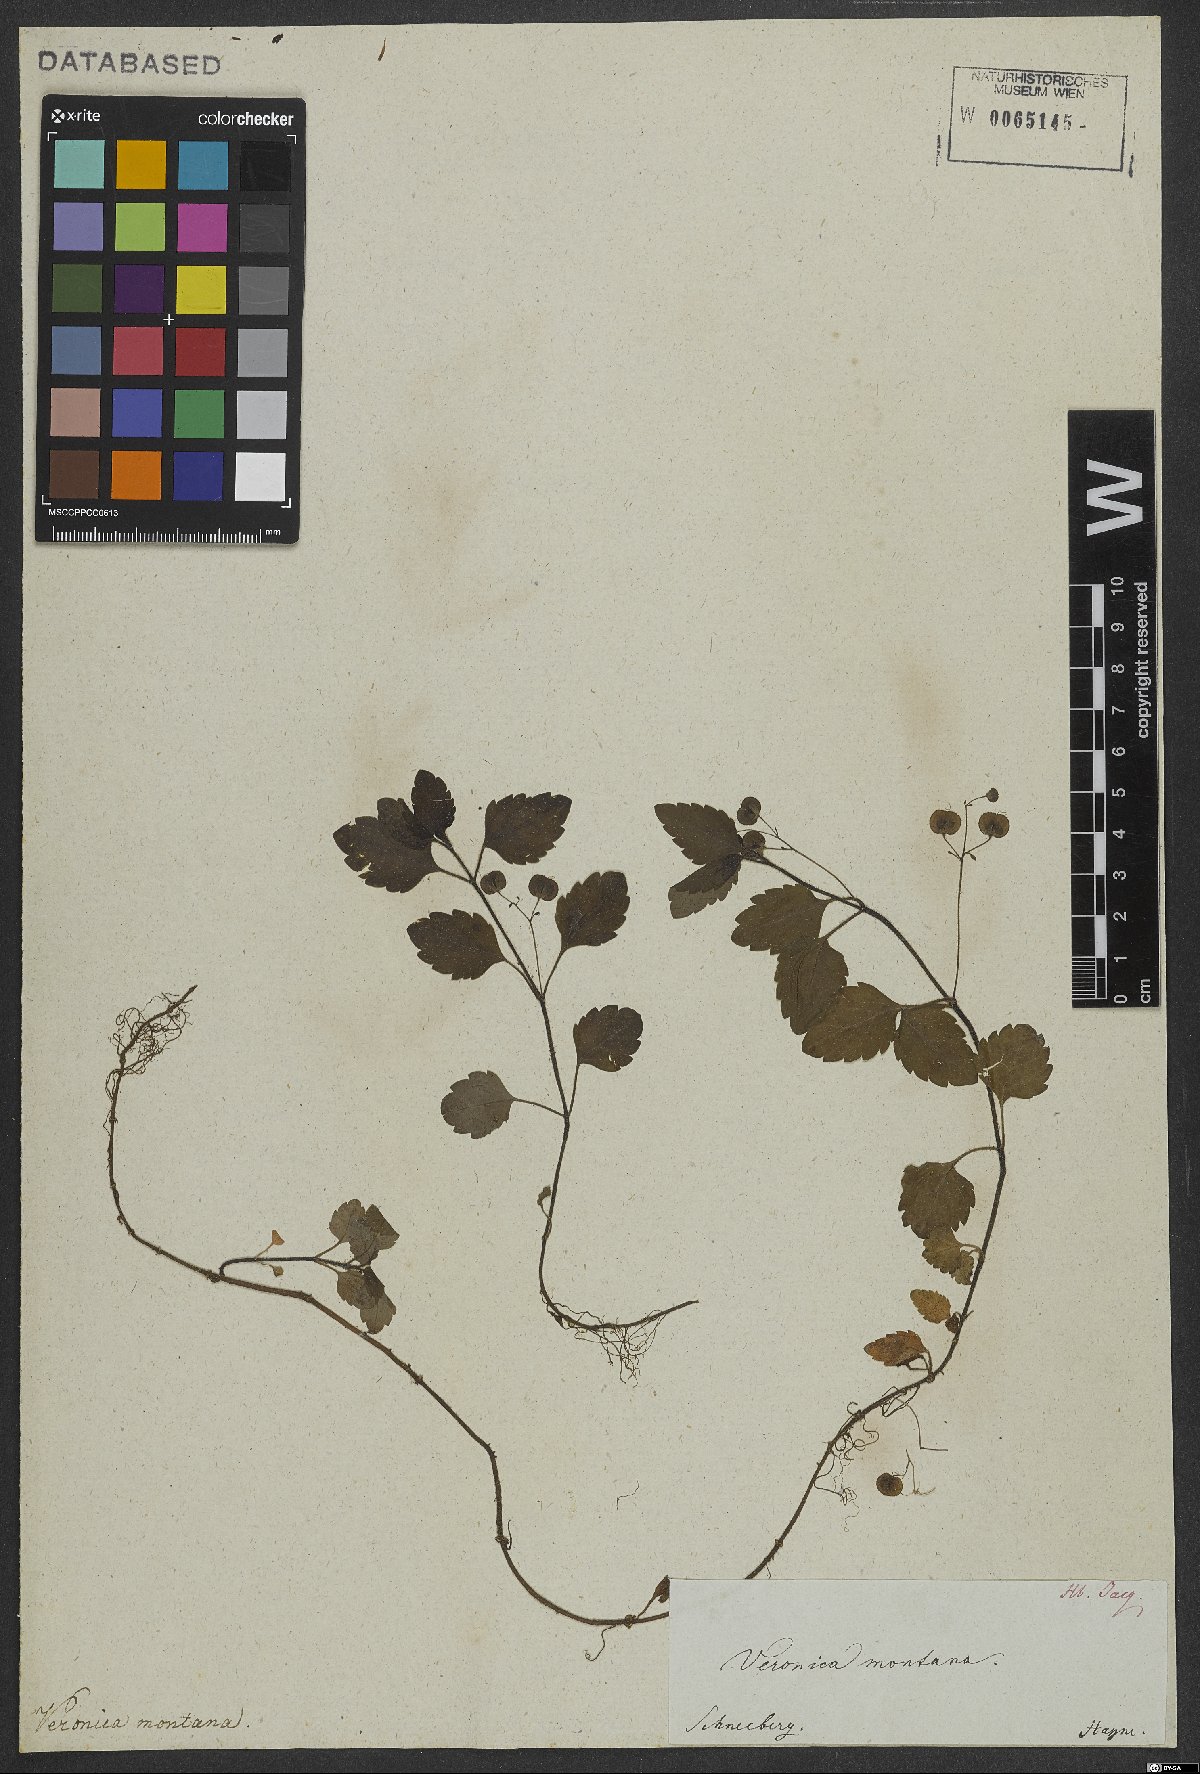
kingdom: Plantae
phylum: Tracheophyta
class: Magnoliopsida
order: Lamiales
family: Plantaginaceae
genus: Veronica
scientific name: Veronica montana
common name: Wood speedwell
